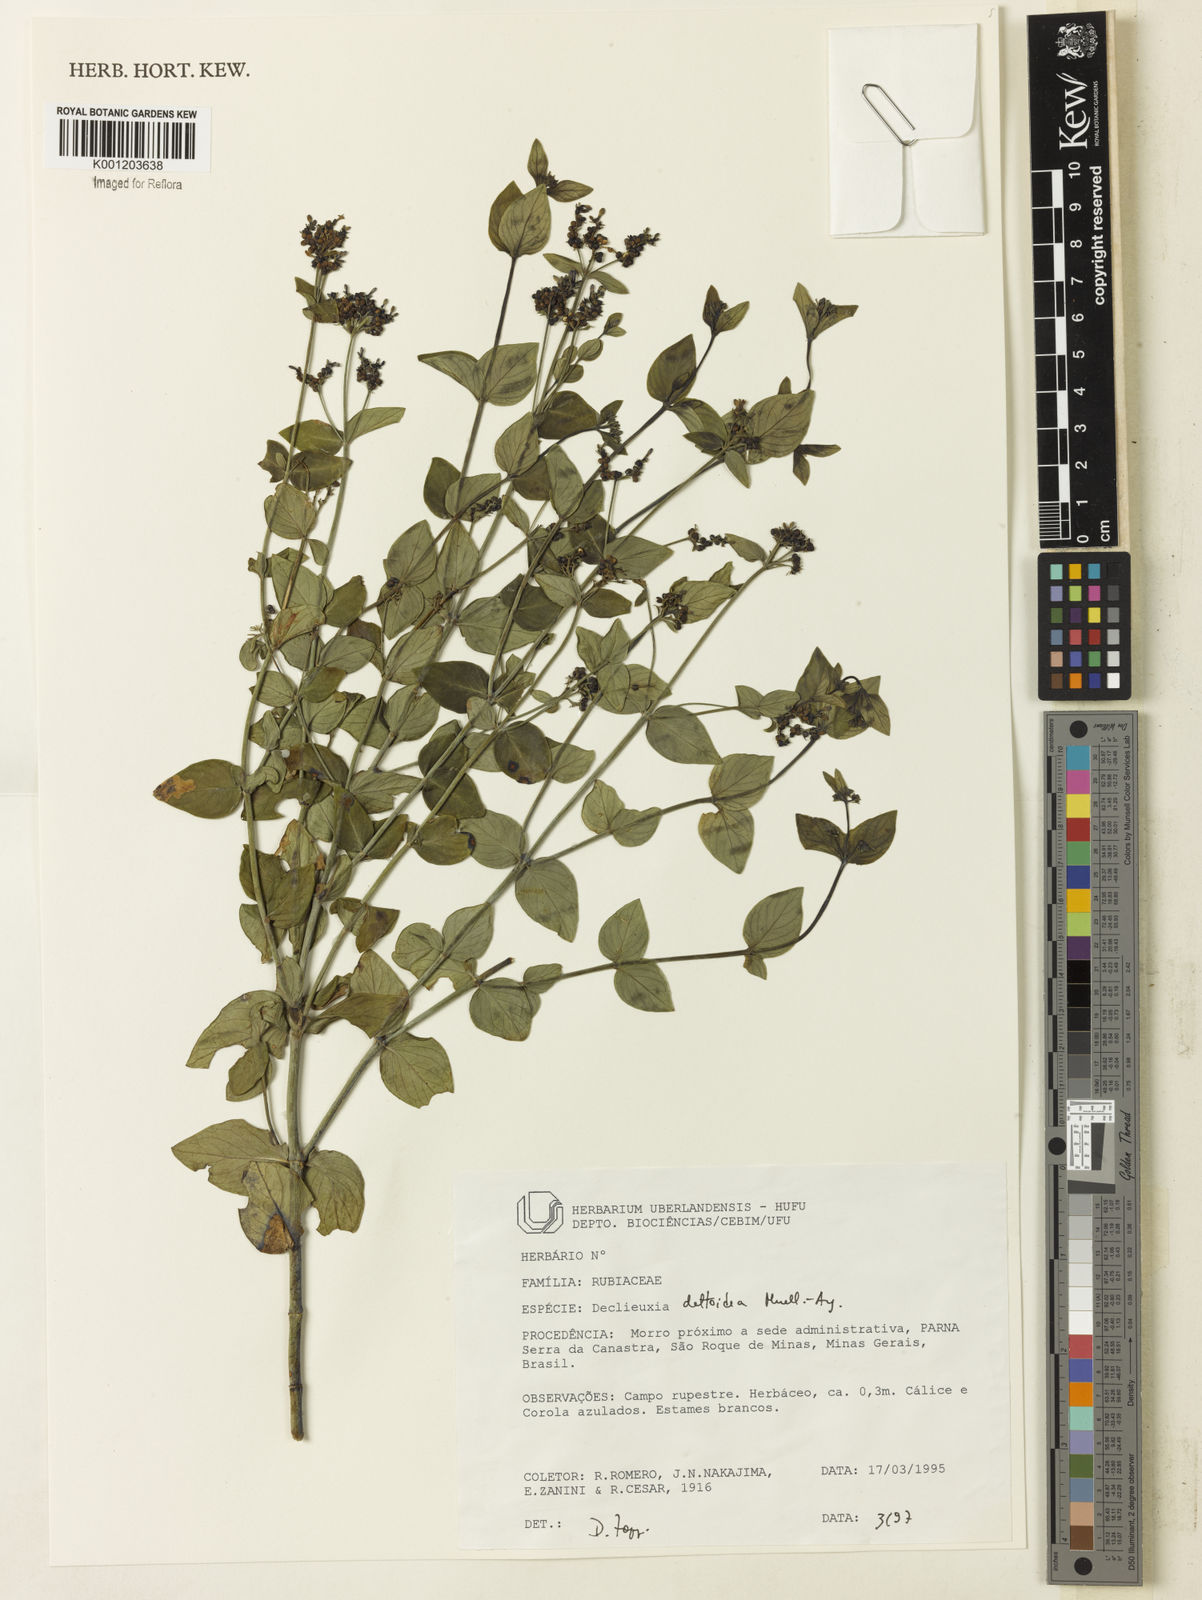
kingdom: Plantae
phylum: Tracheophyta
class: Magnoliopsida
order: Gentianales
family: Rubiaceae
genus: Declieuxia
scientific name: Declieuxia
